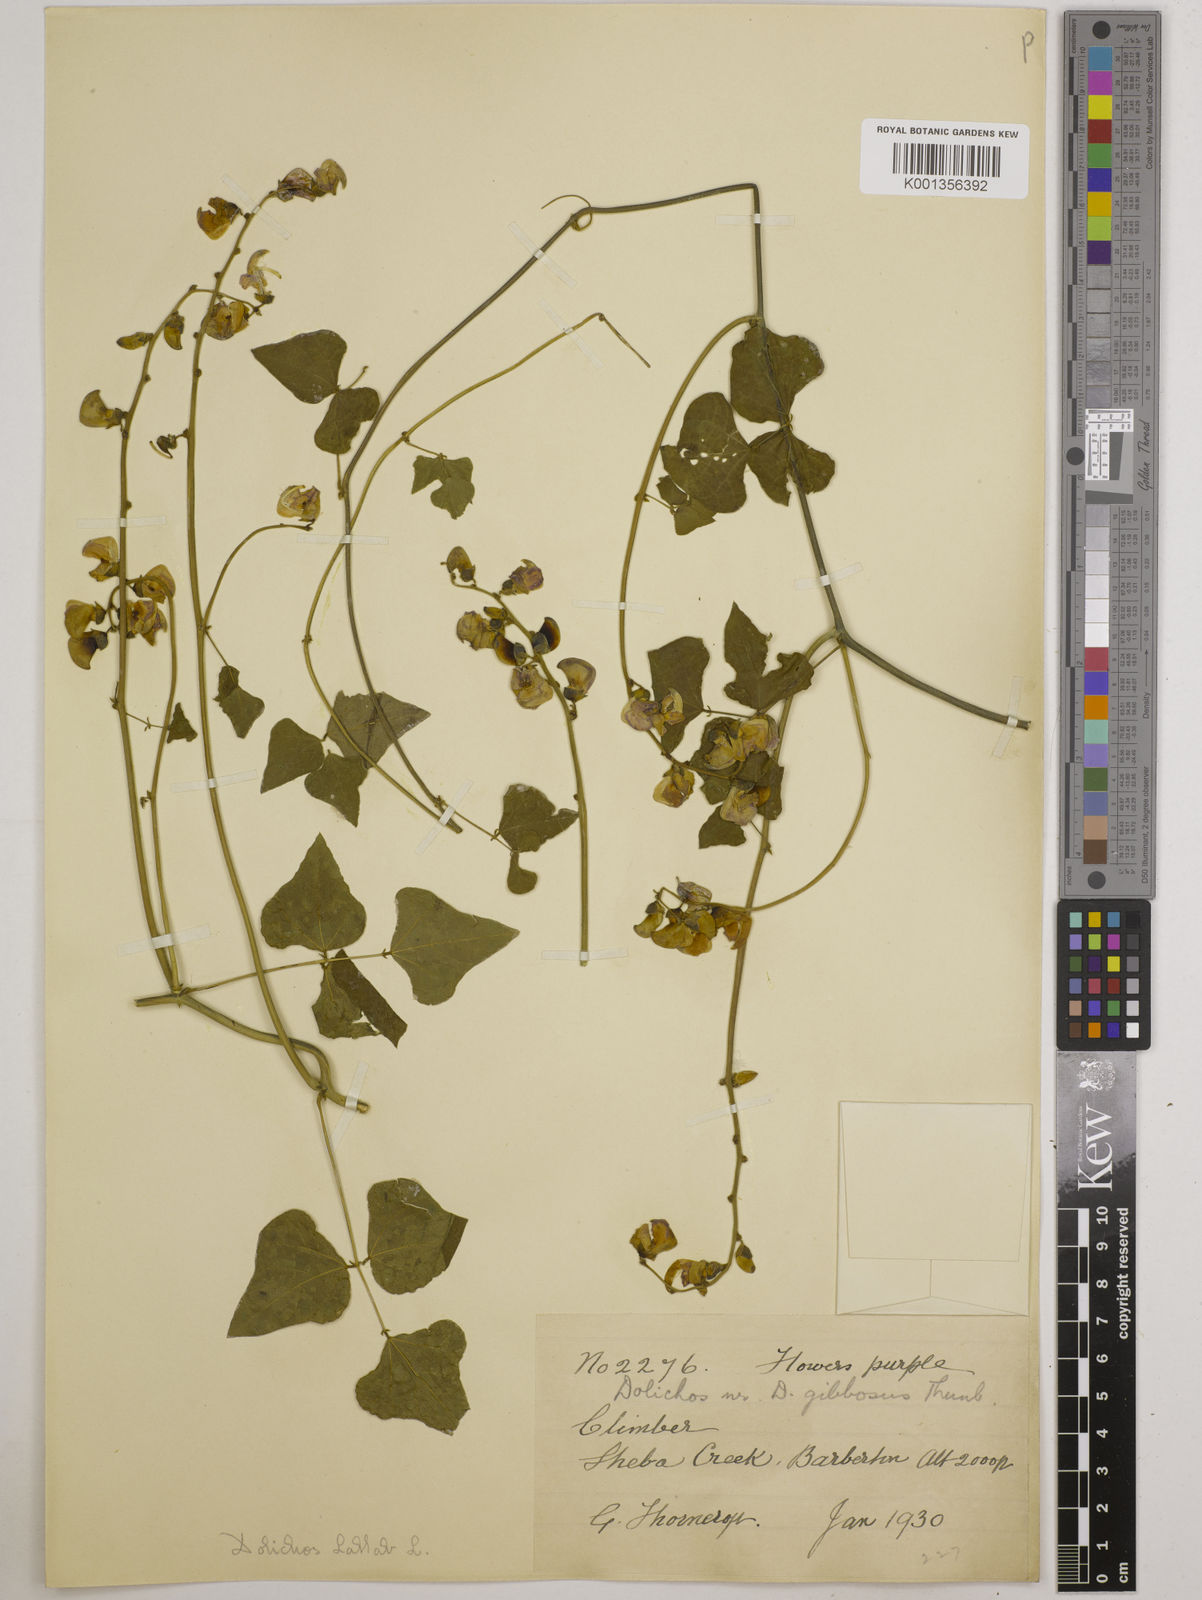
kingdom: Plantae
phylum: Tracheophyta
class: Magnoliopsida
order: Fabales
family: Fabaceae
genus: Lablab
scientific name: Lablab purpureus
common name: Lablab-bean
